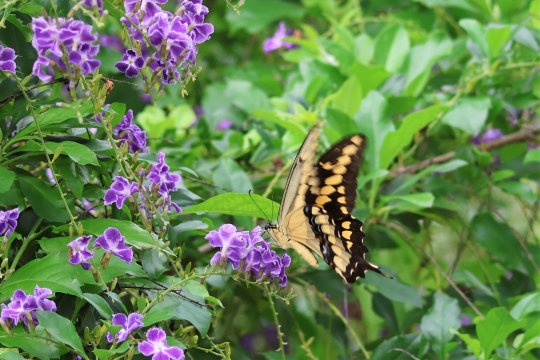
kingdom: Animalia
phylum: Arthropoda
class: Insecta
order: Lepidoptera
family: Papilionidae
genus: Papilio
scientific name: Papilio rumiko
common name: Western Giant Swallowtail
